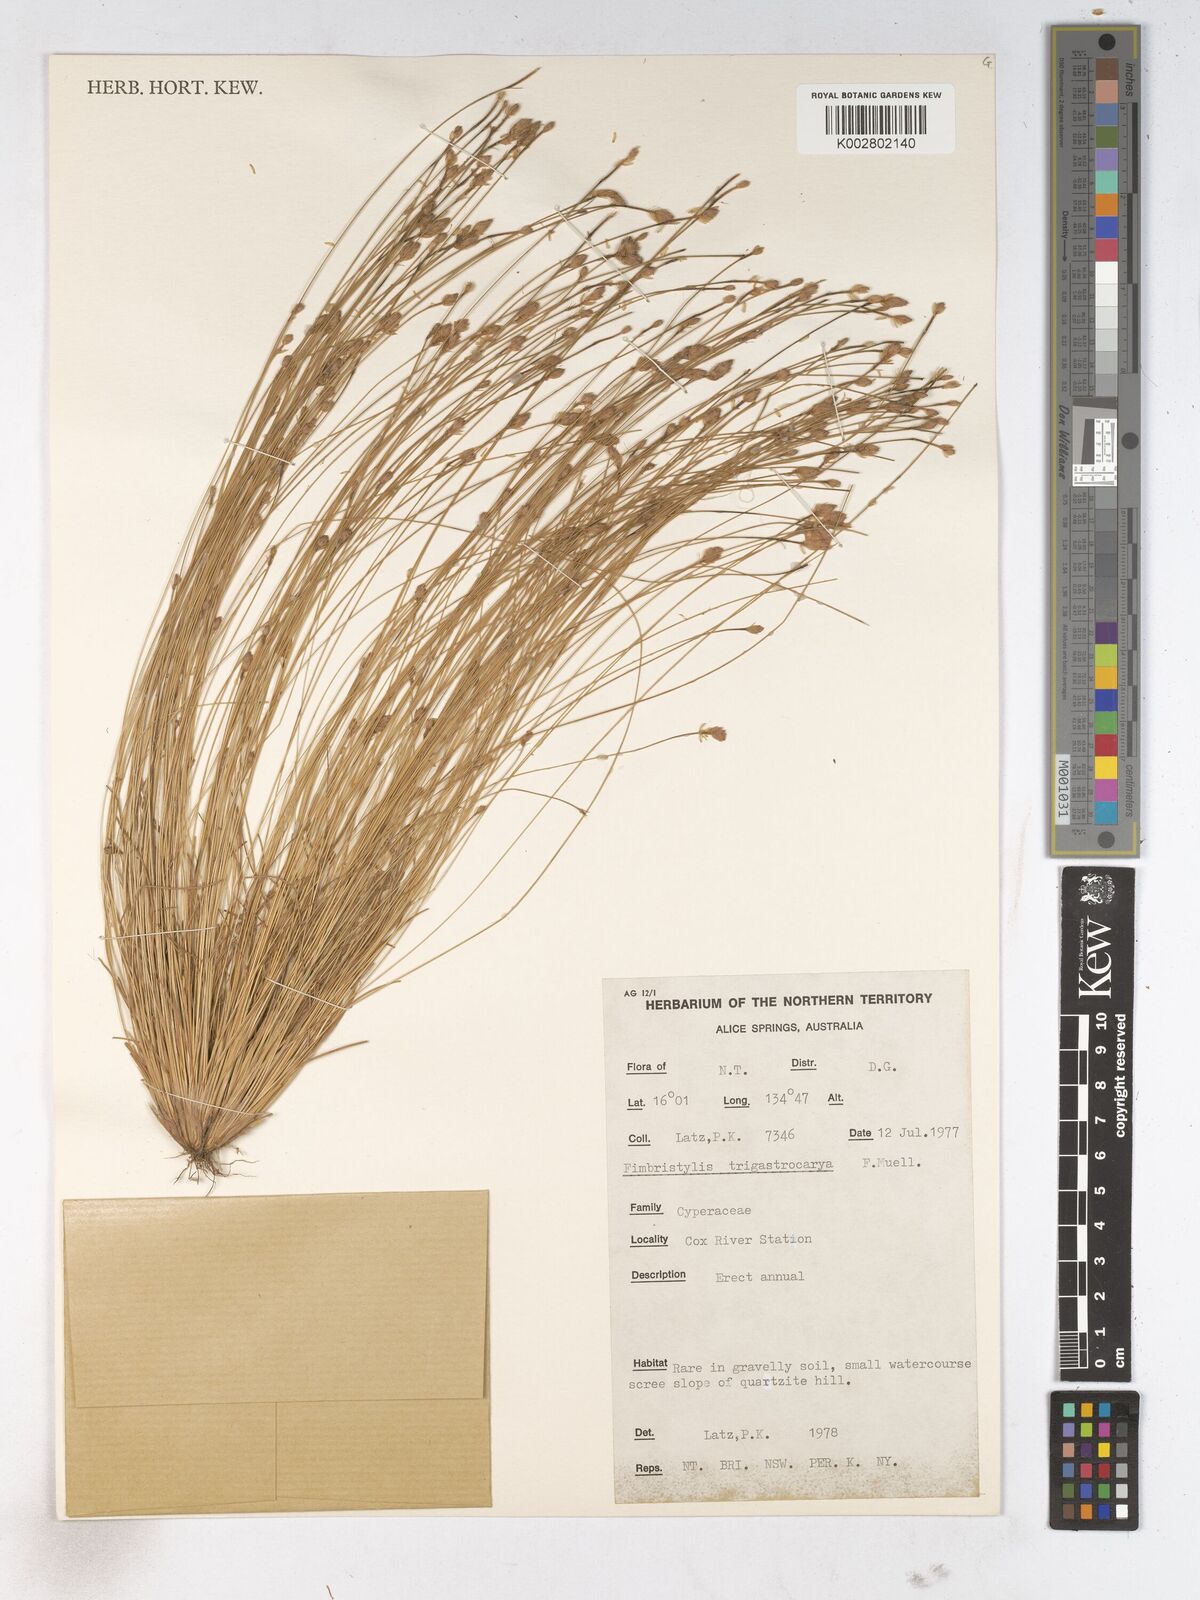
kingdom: Plantae
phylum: Tracheophyta
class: Liliopsida
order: Poales
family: Cyperaceae
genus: Fimbristylis
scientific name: Fimbristylis trigastrocarya
